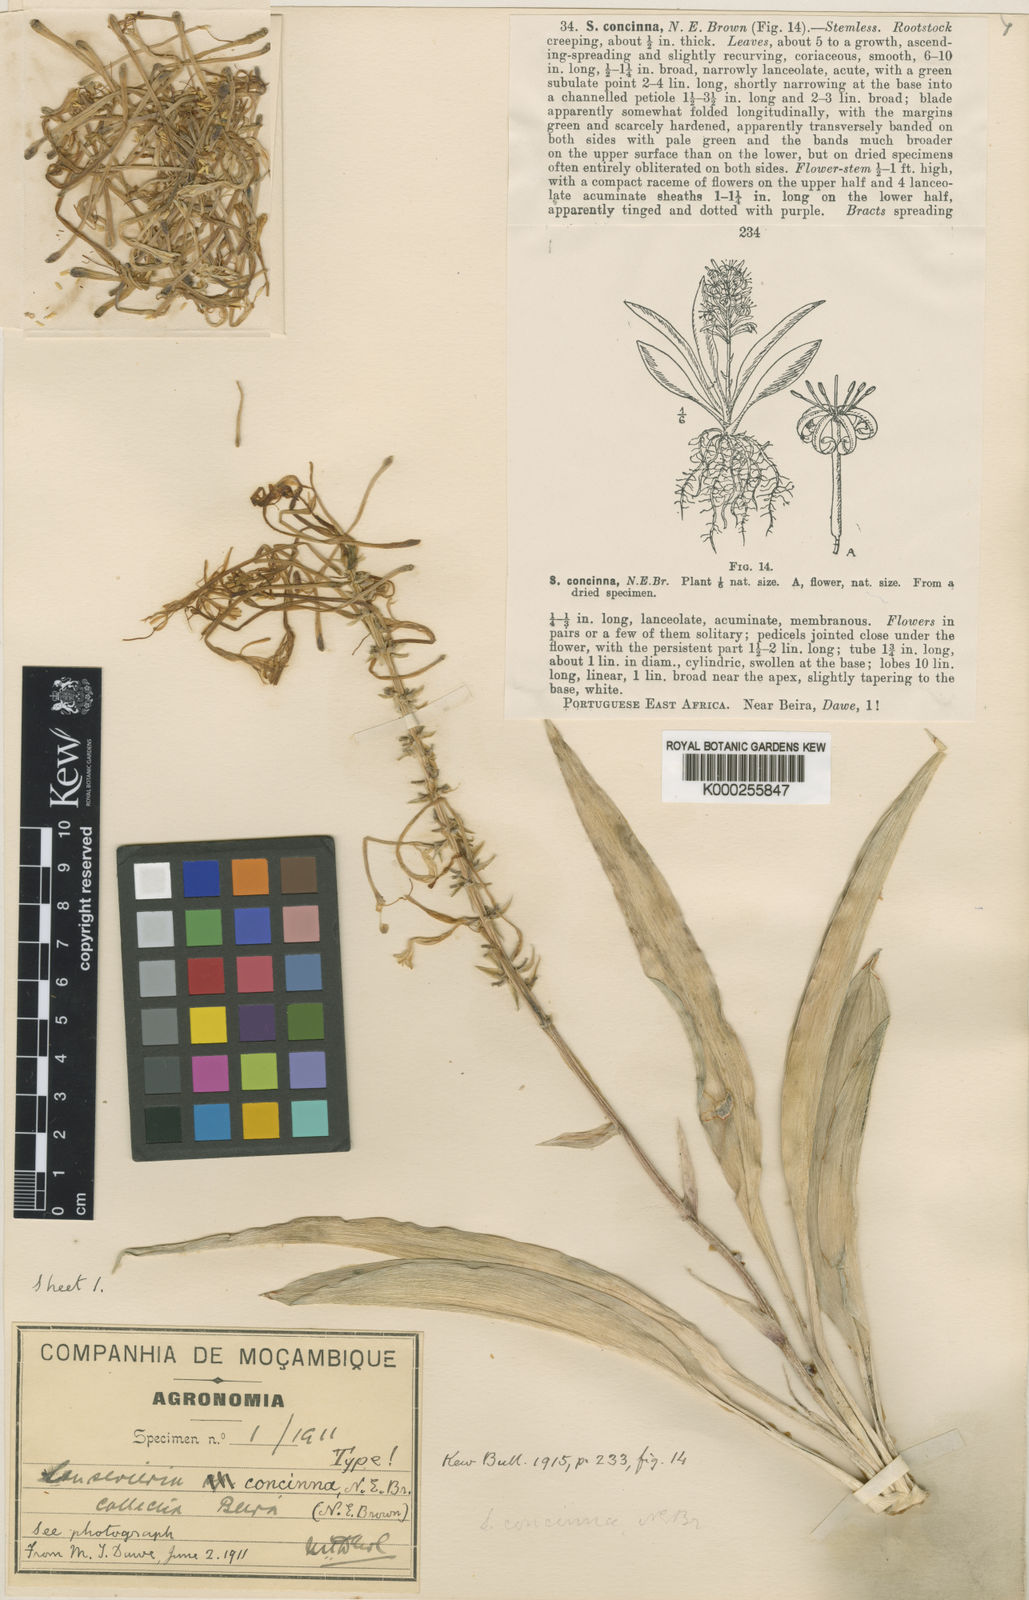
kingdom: Plantae
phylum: Tracheophyta
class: Liliopsida
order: Asparagales
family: Asparagaceae
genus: Dracaena
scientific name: Dracaena spathulata
